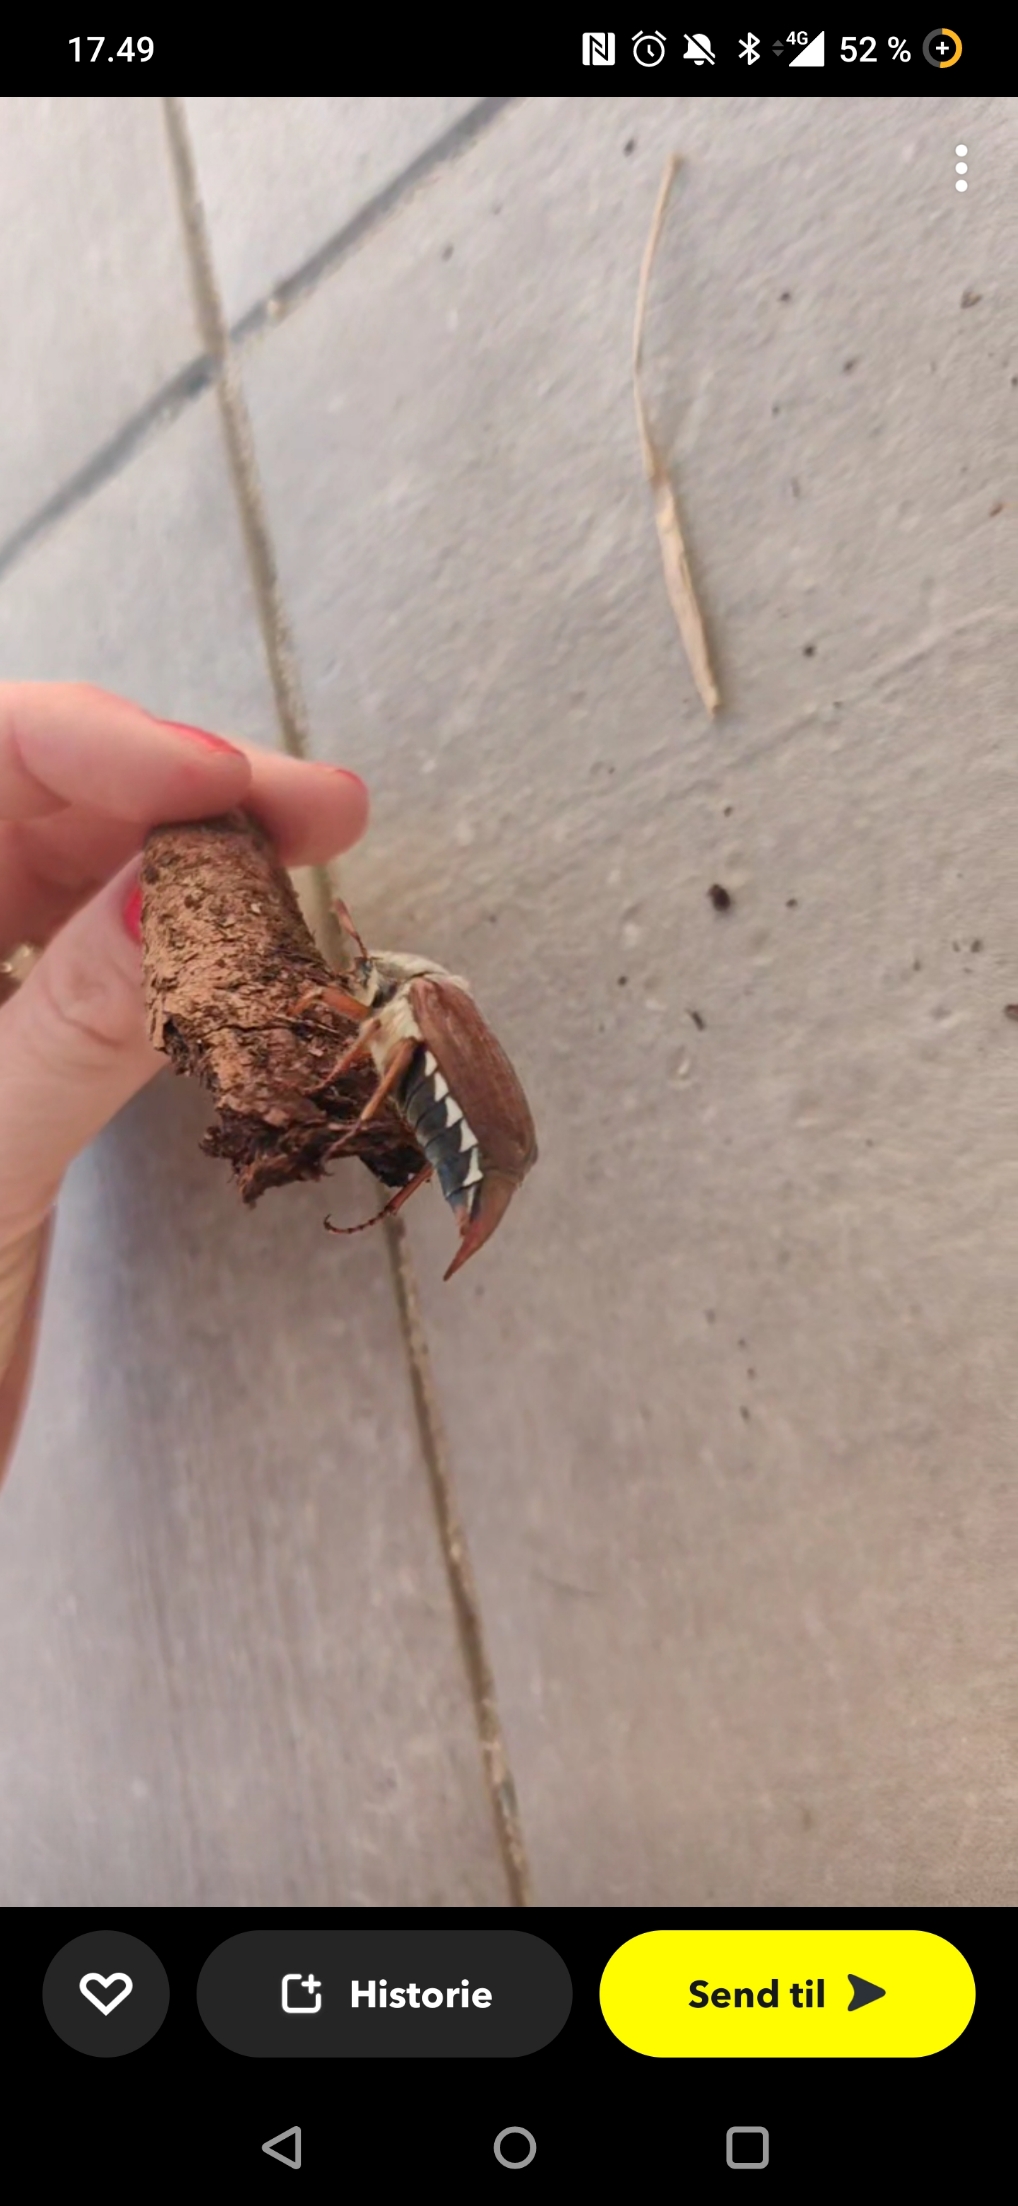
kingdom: Animalia
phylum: Arthropoda
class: Insecta
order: Coleoptera
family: Scarabaeidae
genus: Melolontha
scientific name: Melolontha melolontha
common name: Almindelig oldenborre
